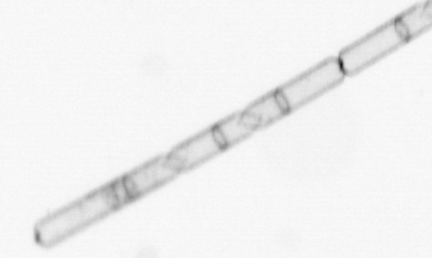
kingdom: Chromista
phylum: Ochrophyta
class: Bacillariophyceae
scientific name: Bacillariophyceae
